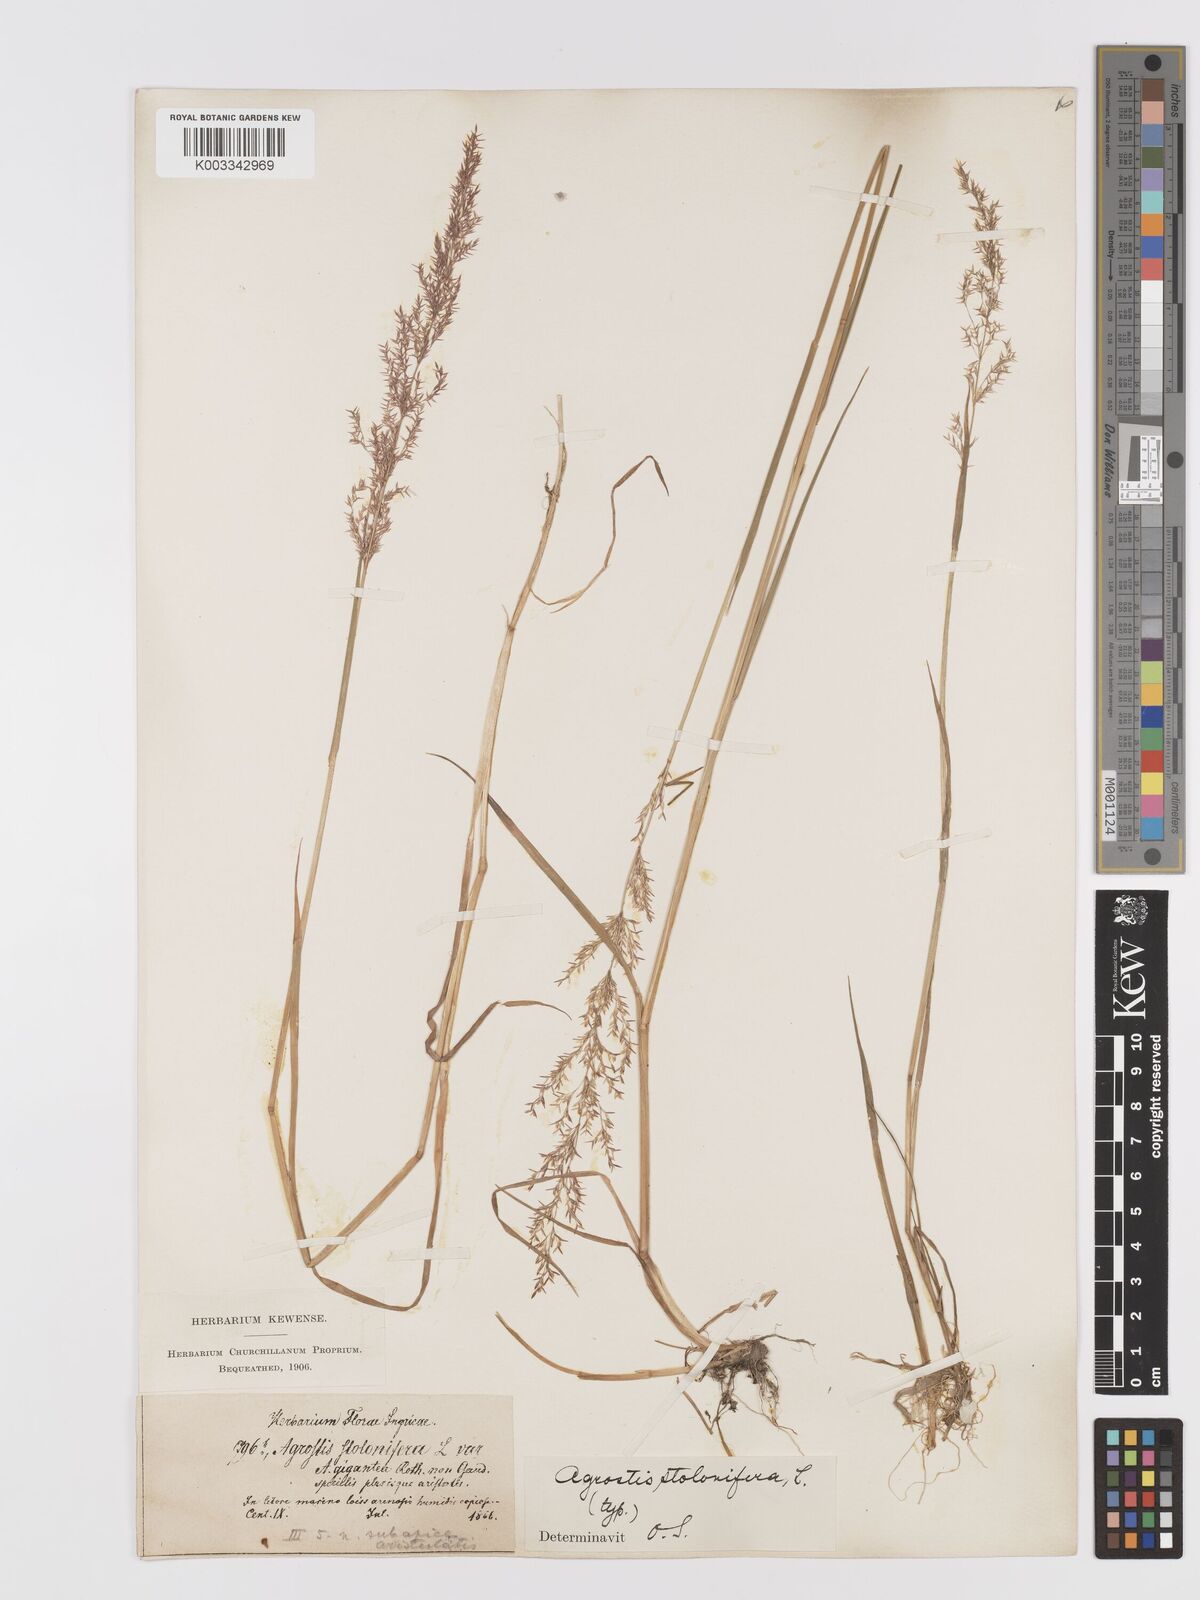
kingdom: Plantae
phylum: Tracheophyta
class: Liliopsida
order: Poales
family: Poaceae
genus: Agrostis
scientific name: Agrostis stolonifera
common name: Creeping bentgrass
